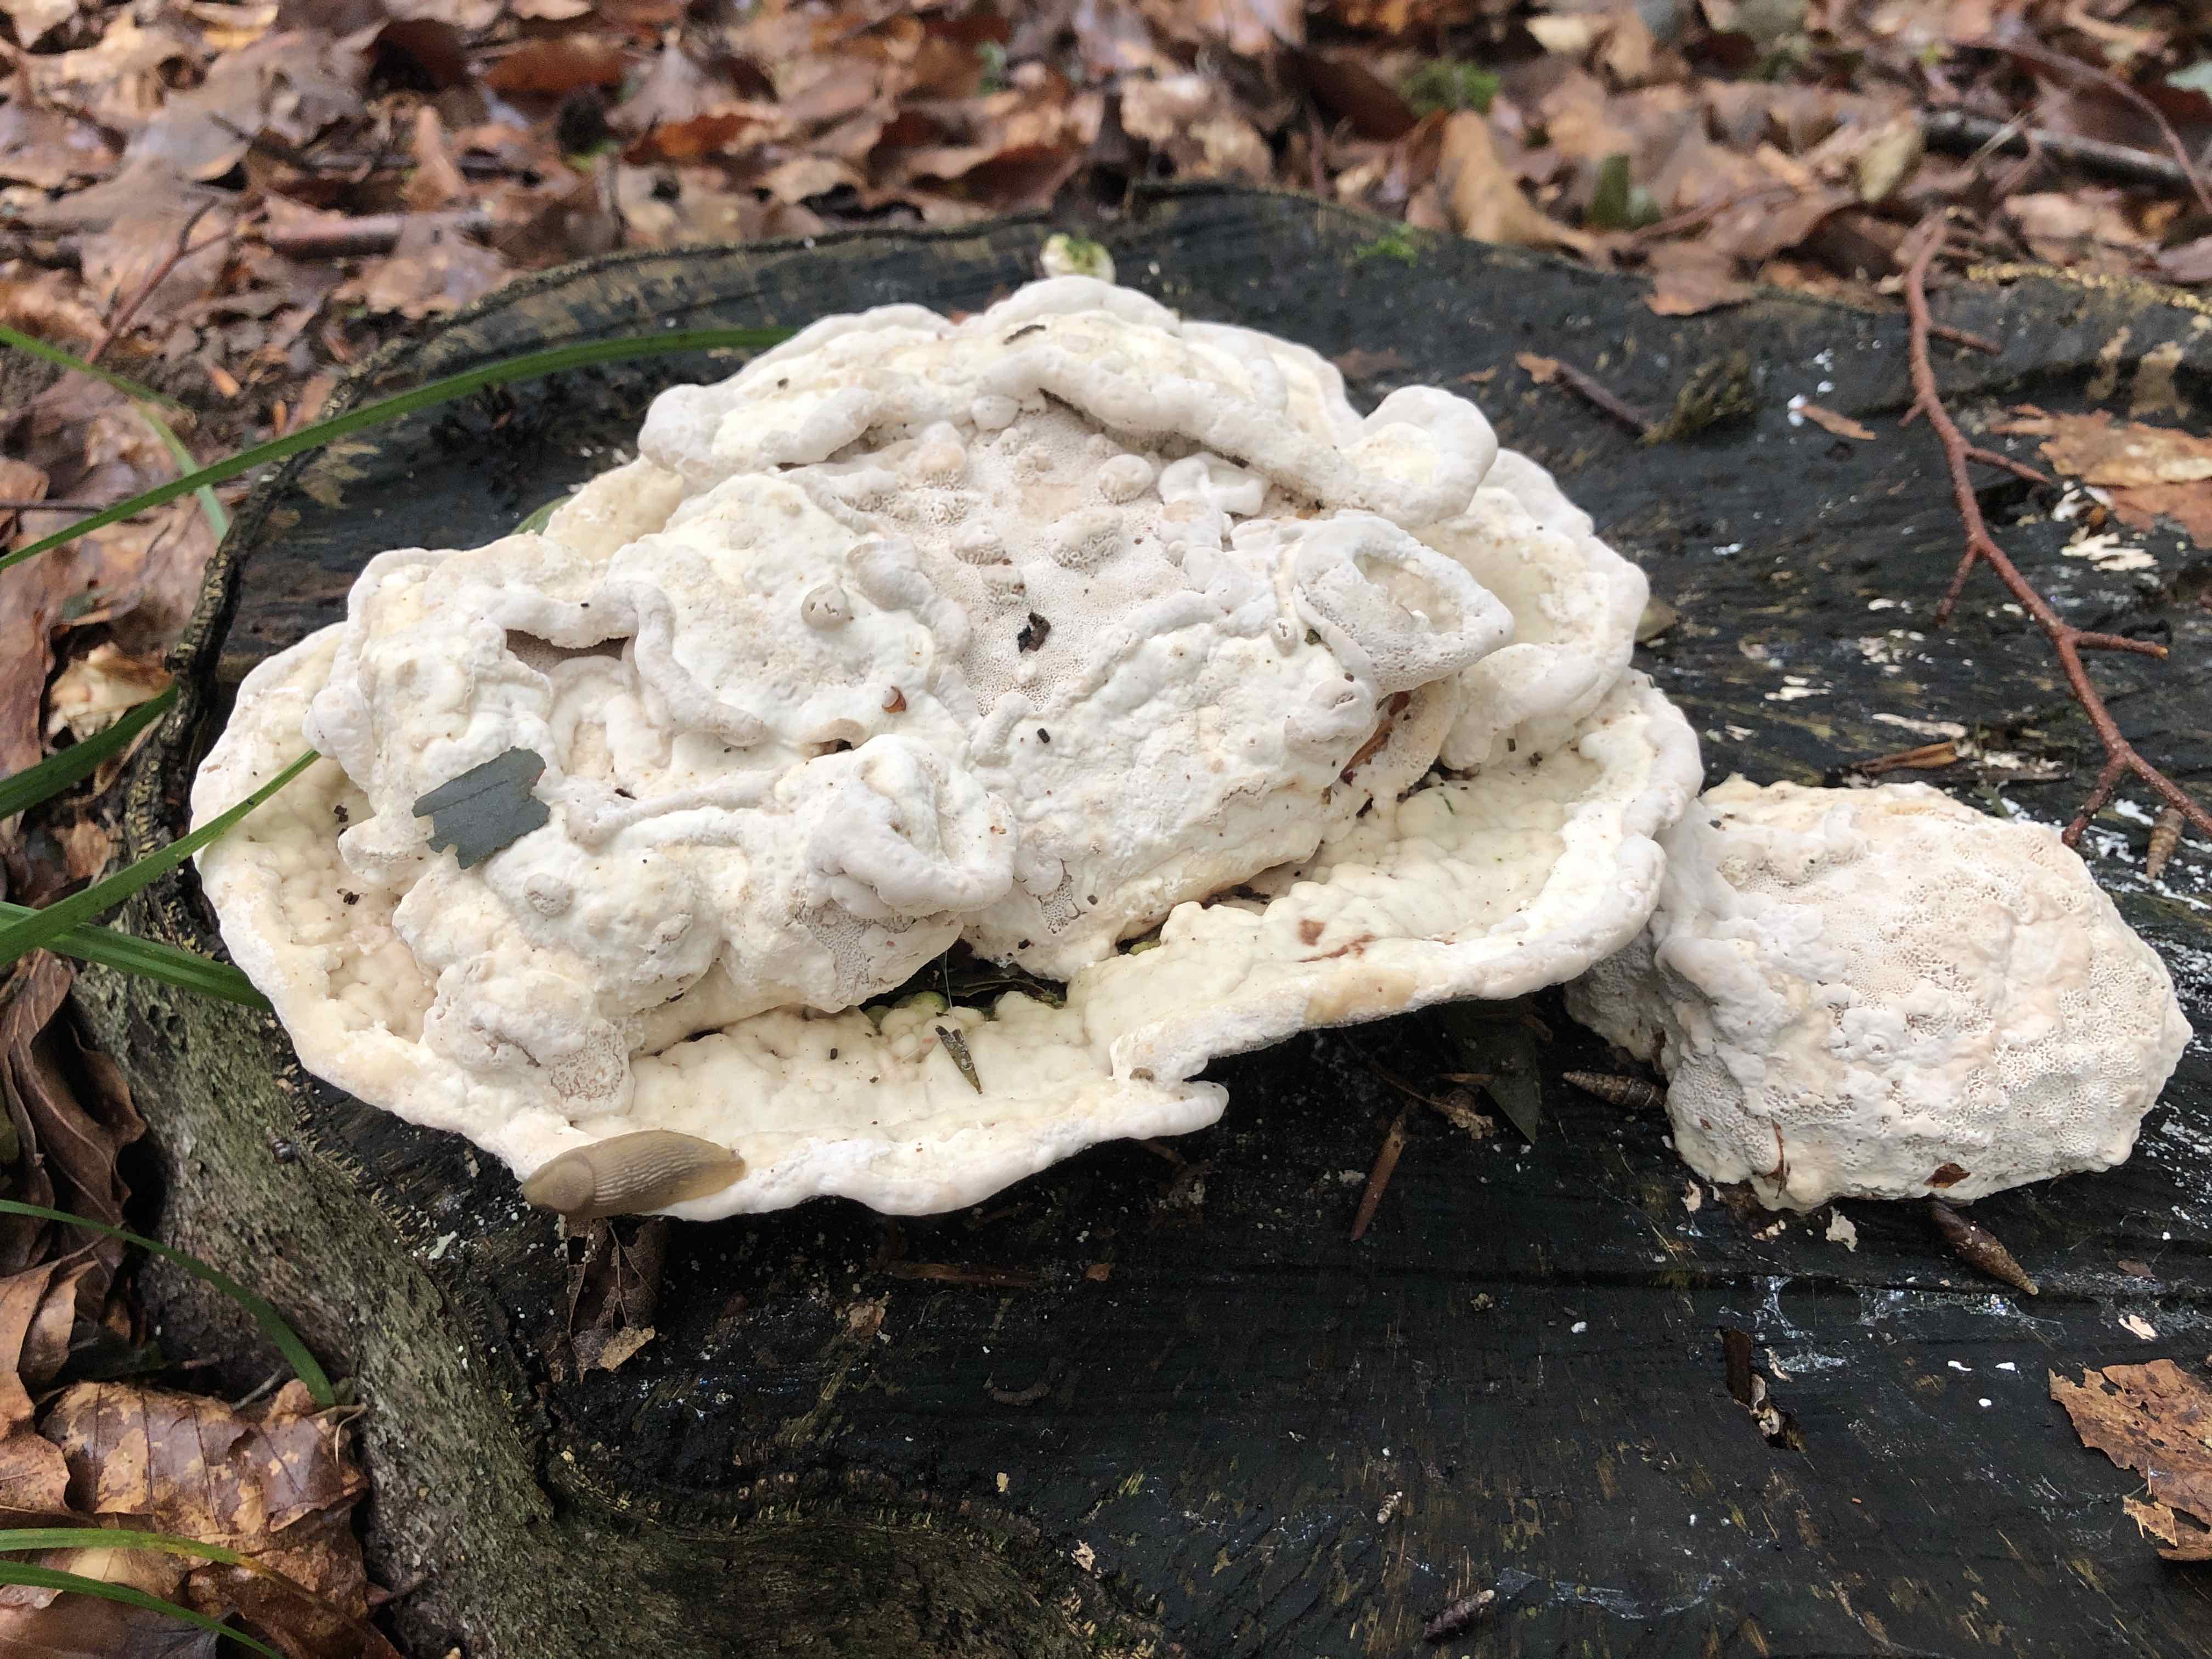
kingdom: Fungi
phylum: Basidiomycota
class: Agaricomycetes
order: Polyporales
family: Polyporaceae
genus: Trametes
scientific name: Trametes gibbosa
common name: puklet læderporesvamp
